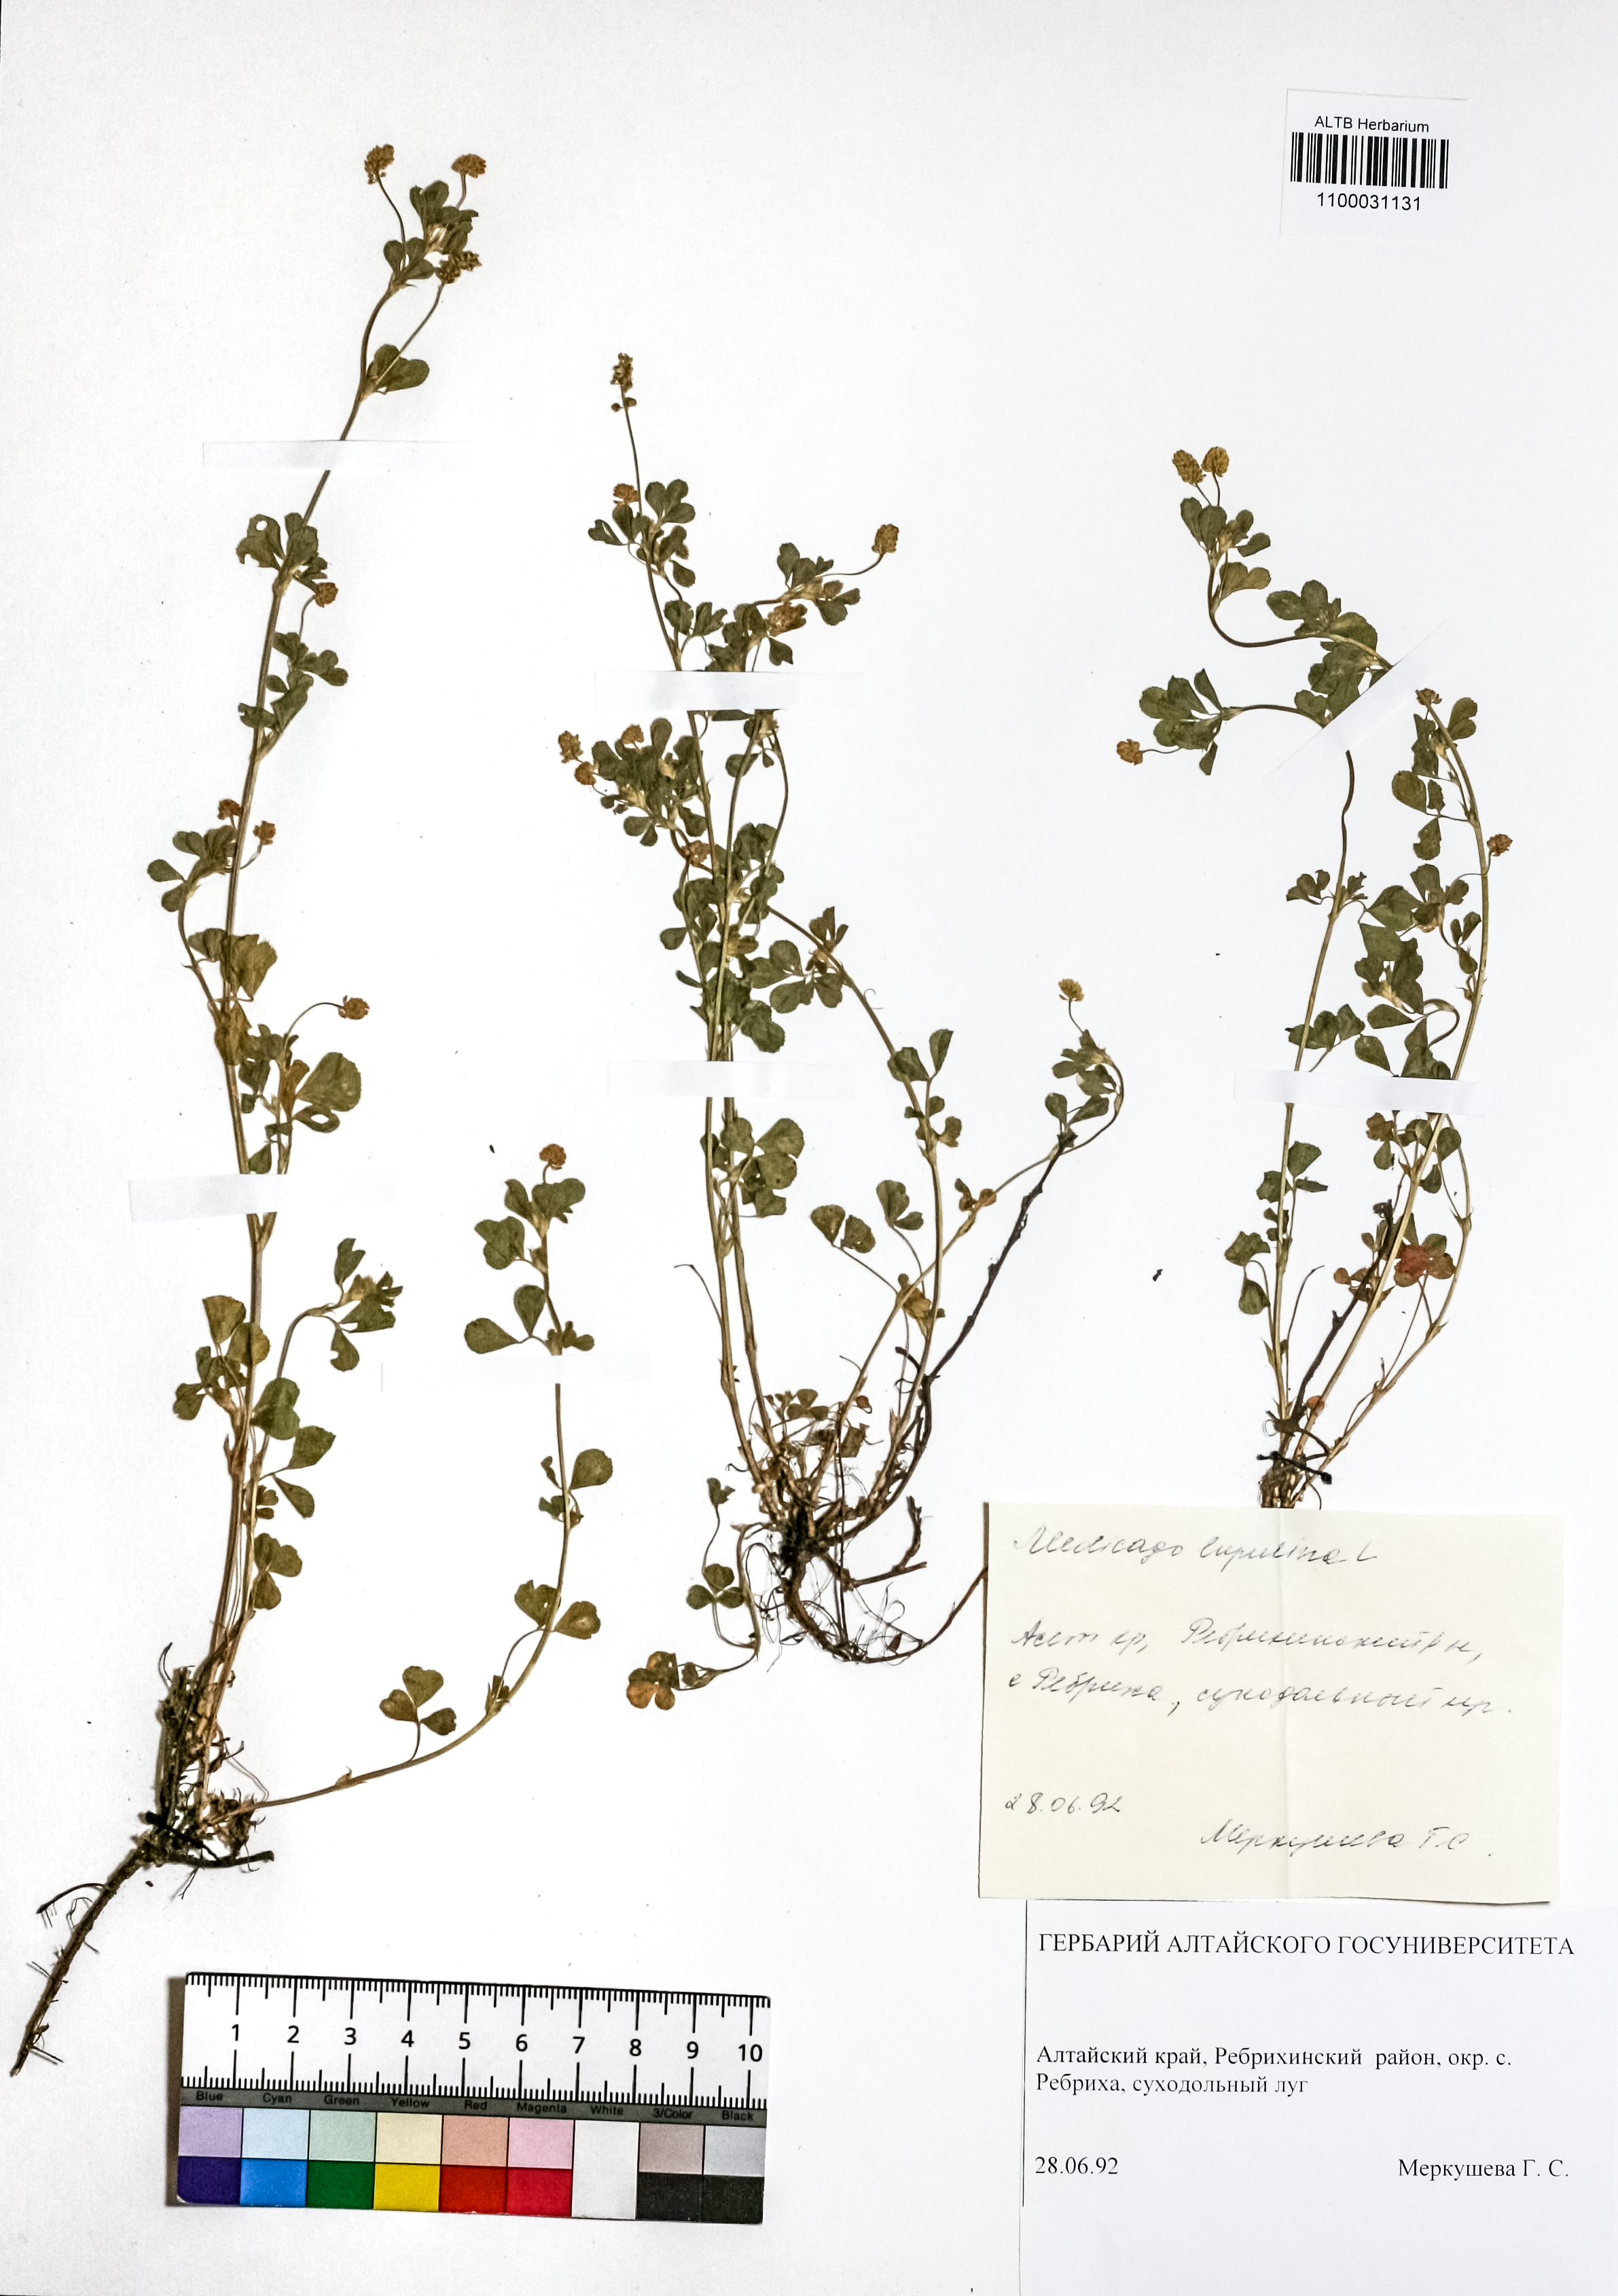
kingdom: Plantae
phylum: Tracheophyta
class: Magnoliopsida
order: Fabales
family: Fabaceae
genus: Medicago
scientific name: Medicago lupulina
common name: Black medick
